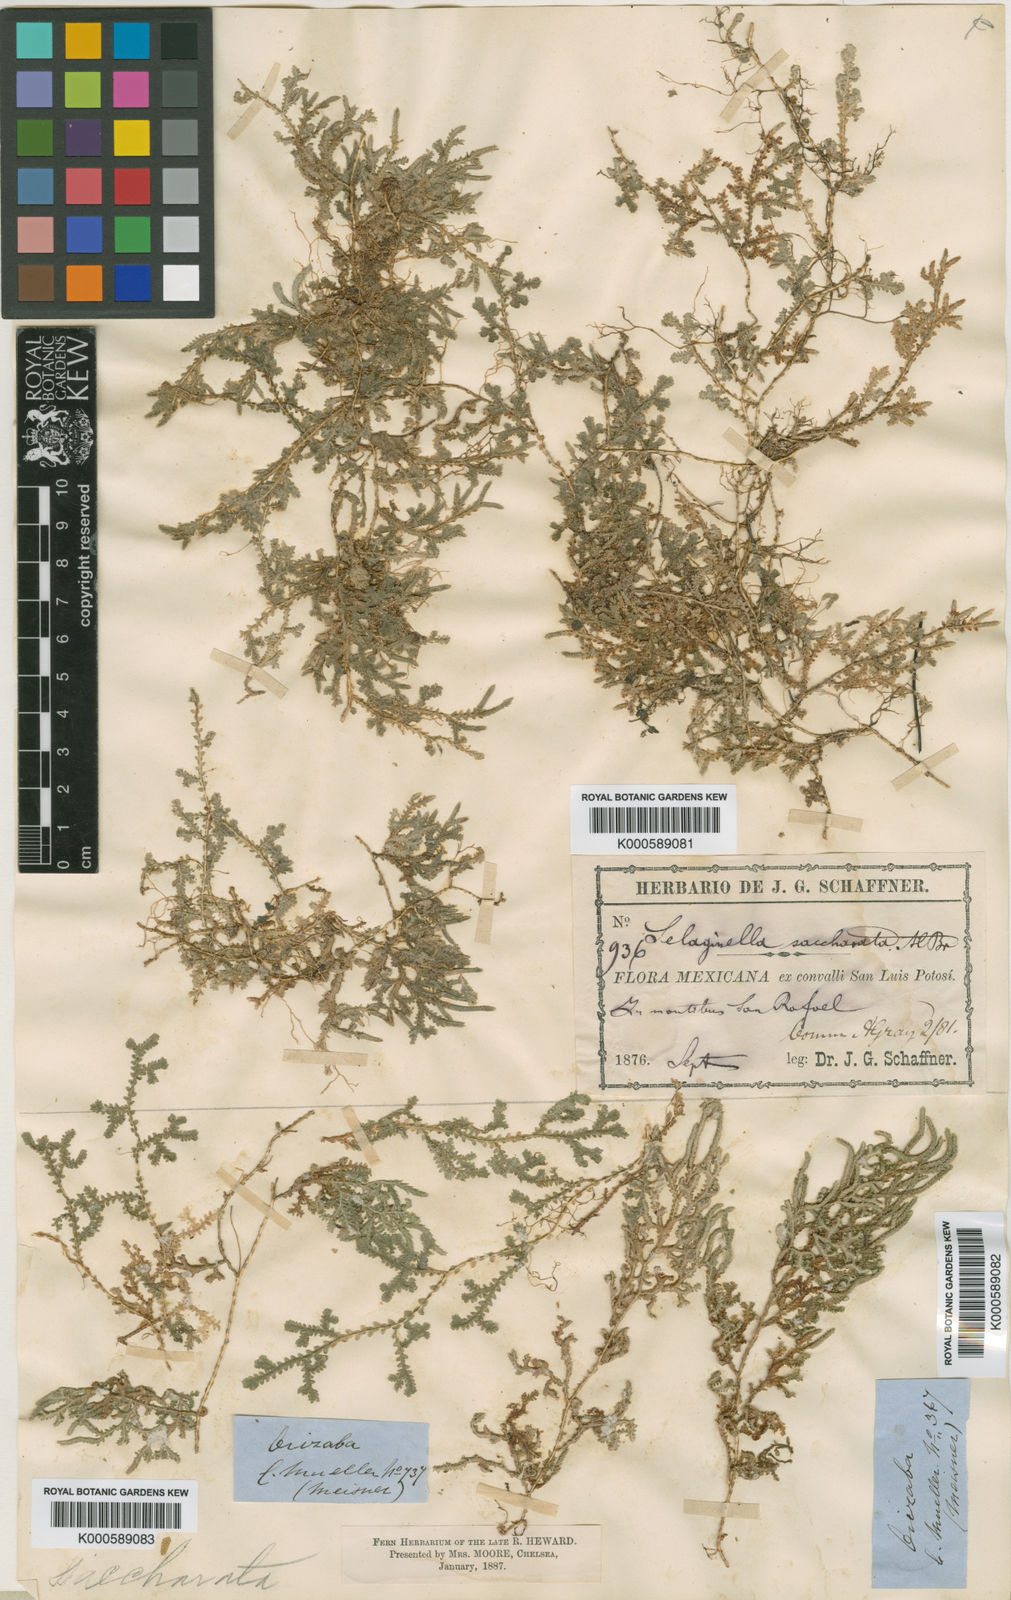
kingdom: Plantae
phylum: Tracheophyta
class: Lycopodiopsida
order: Selaginellales
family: Selaginellaceae
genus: Selaginella
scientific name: Selaginella
